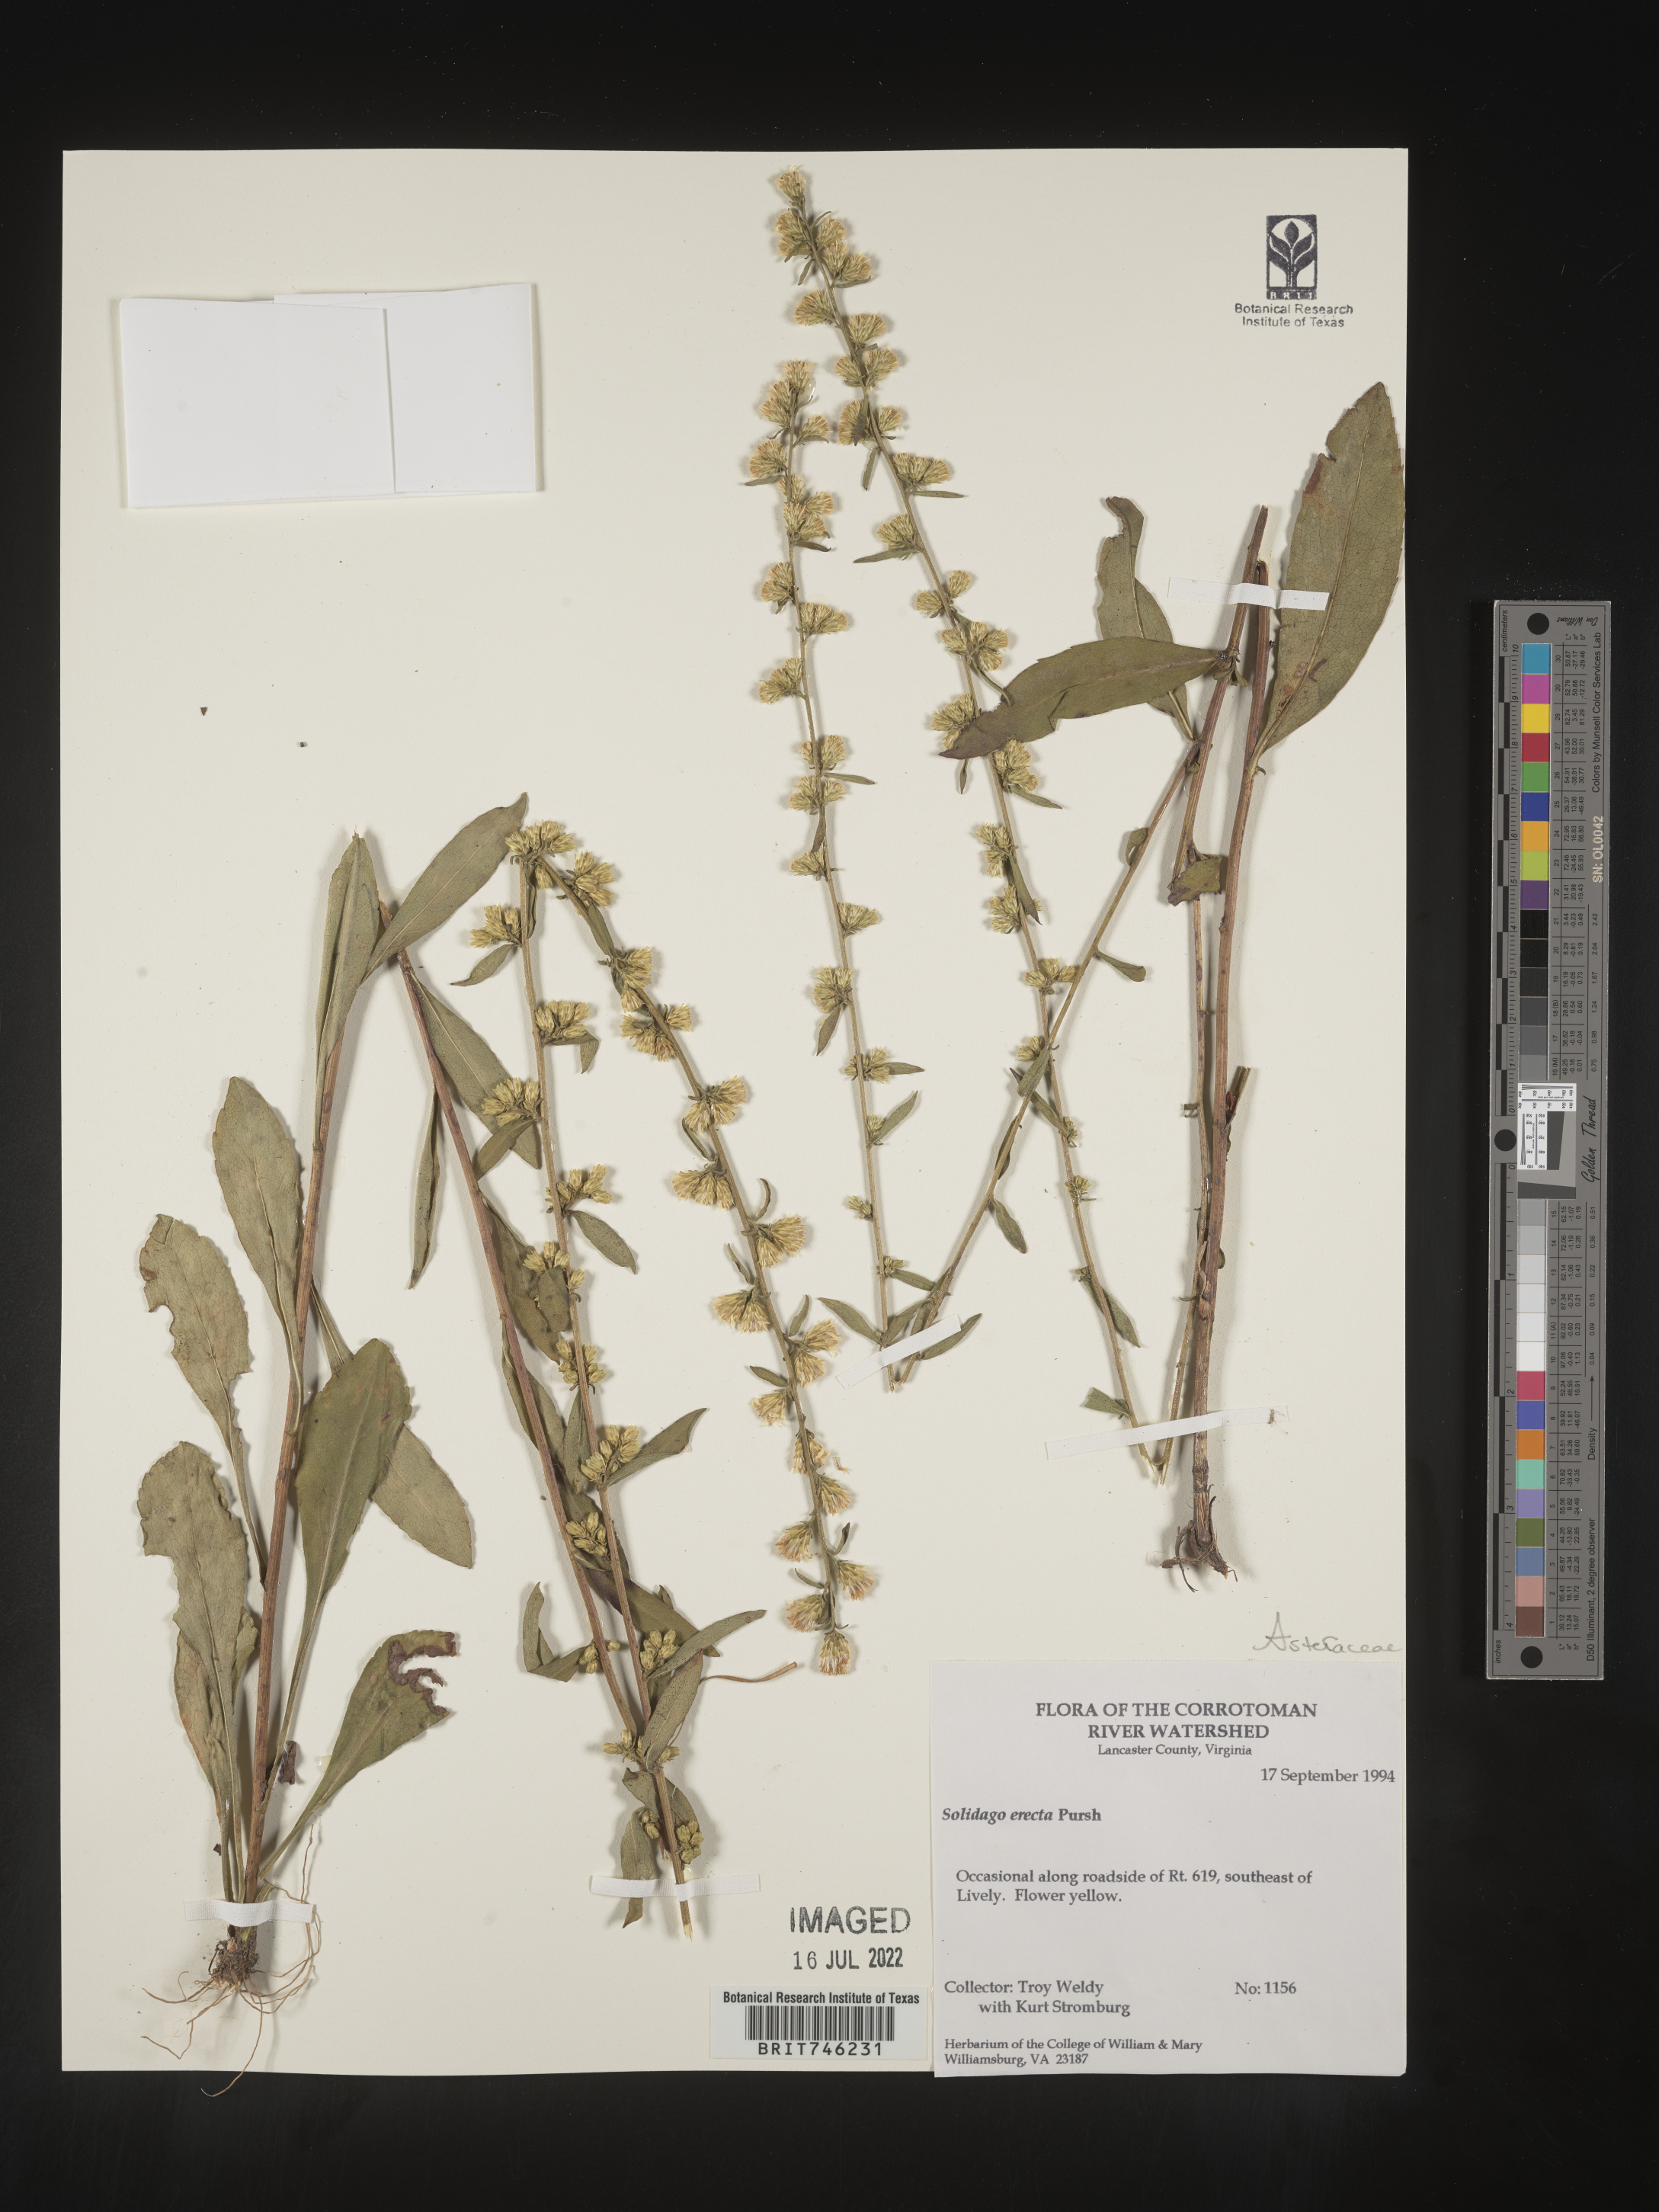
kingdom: Plantae
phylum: Tracheophyta
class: Magnoliopsida
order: Asterales
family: Asteraceae
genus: Solidago
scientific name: Solidago erecta
